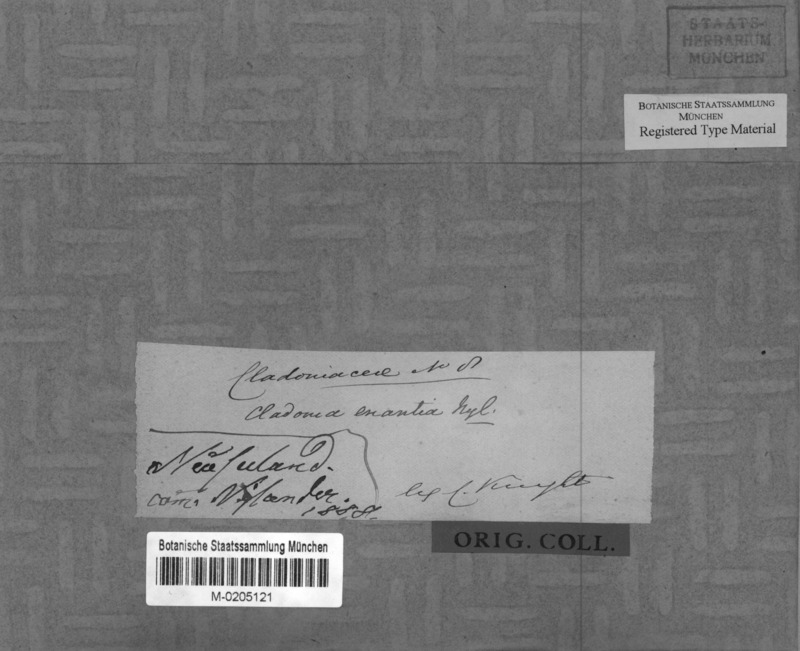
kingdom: Fungi
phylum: Ascomycota
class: Lecanoromycetes
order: Lecanorales
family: Cladoniaceae
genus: Cladonia
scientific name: Cladonia enantia
